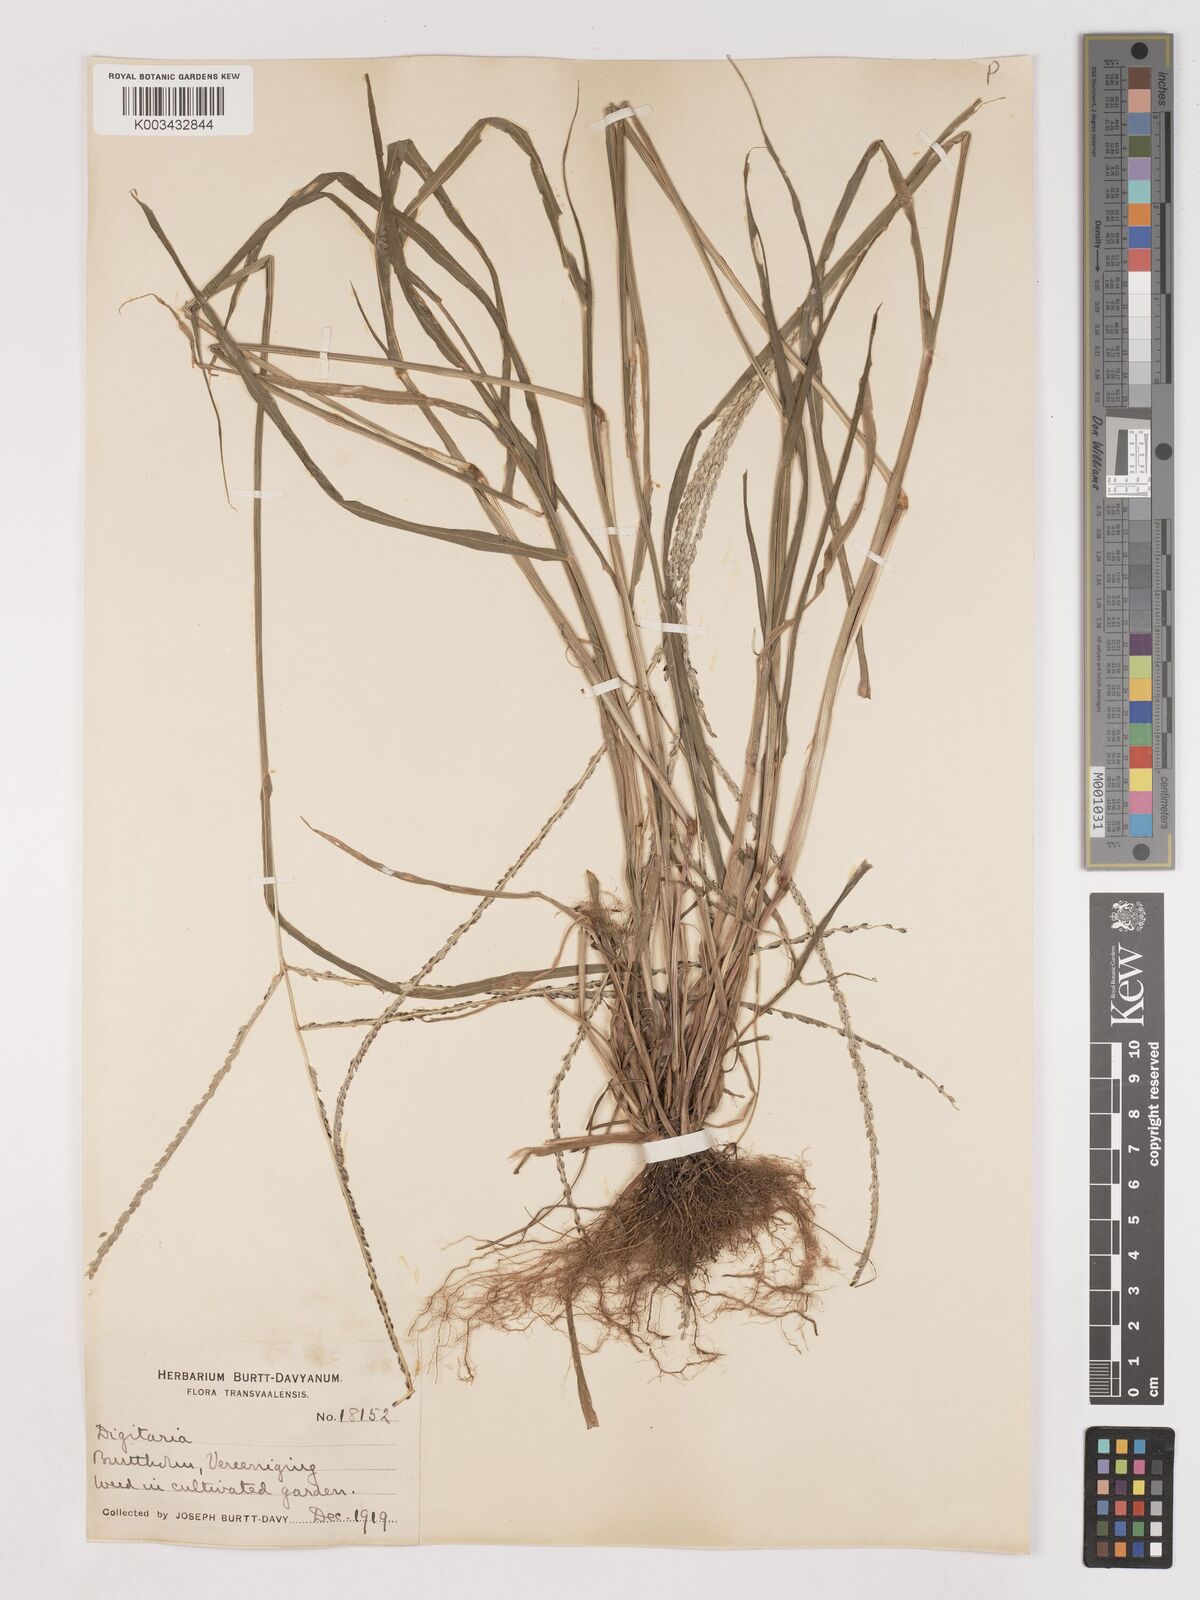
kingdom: Plantae
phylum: Tracheophyta
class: Liliopsida
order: Poales
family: Poaceae
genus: Digitaria
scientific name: Digitaria ternata
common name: Blackseed crabgrass
